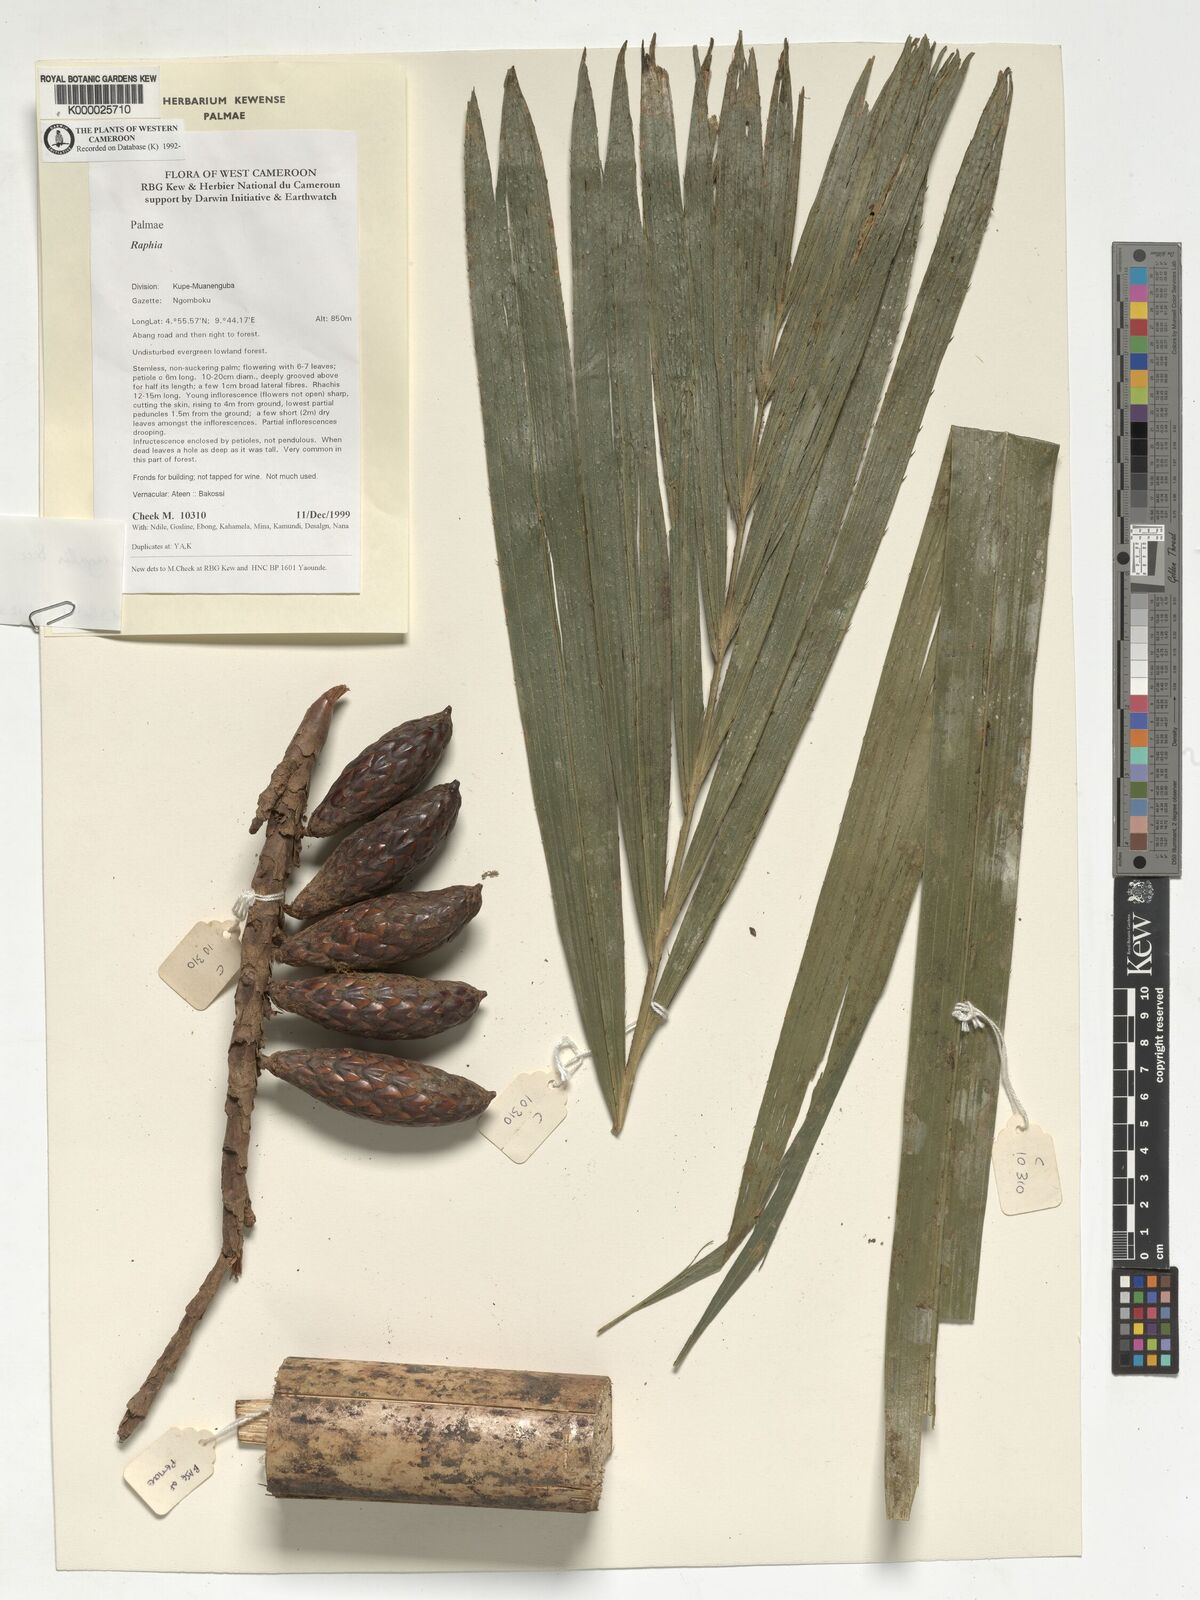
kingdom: Plantae
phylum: Tracheophyta
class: Liliopsida
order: Arecales
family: Arecaceae
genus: Raphia
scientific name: Raphia regalis
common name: Raphia palm
